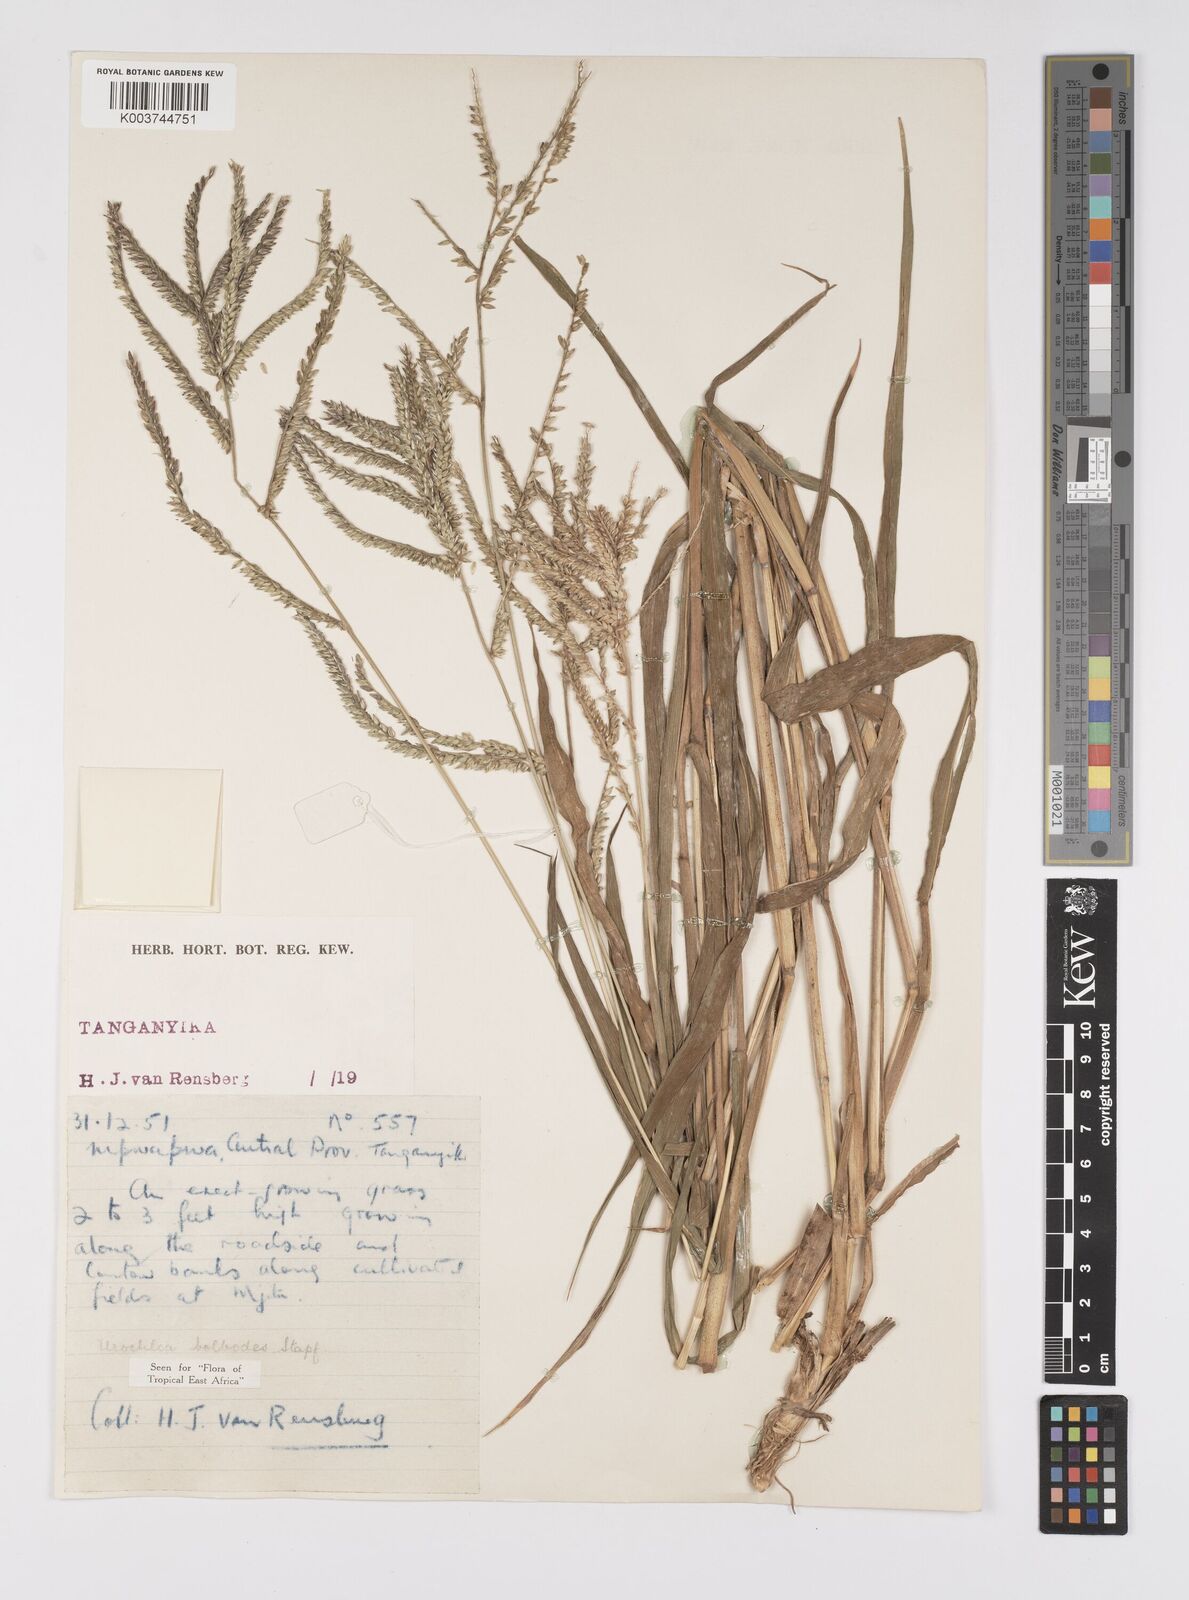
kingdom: Plantae
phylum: Tracheophyta
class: Liliopsida
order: Poales
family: Poaceae
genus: Urochloa
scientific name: Urochloa oligotricha
